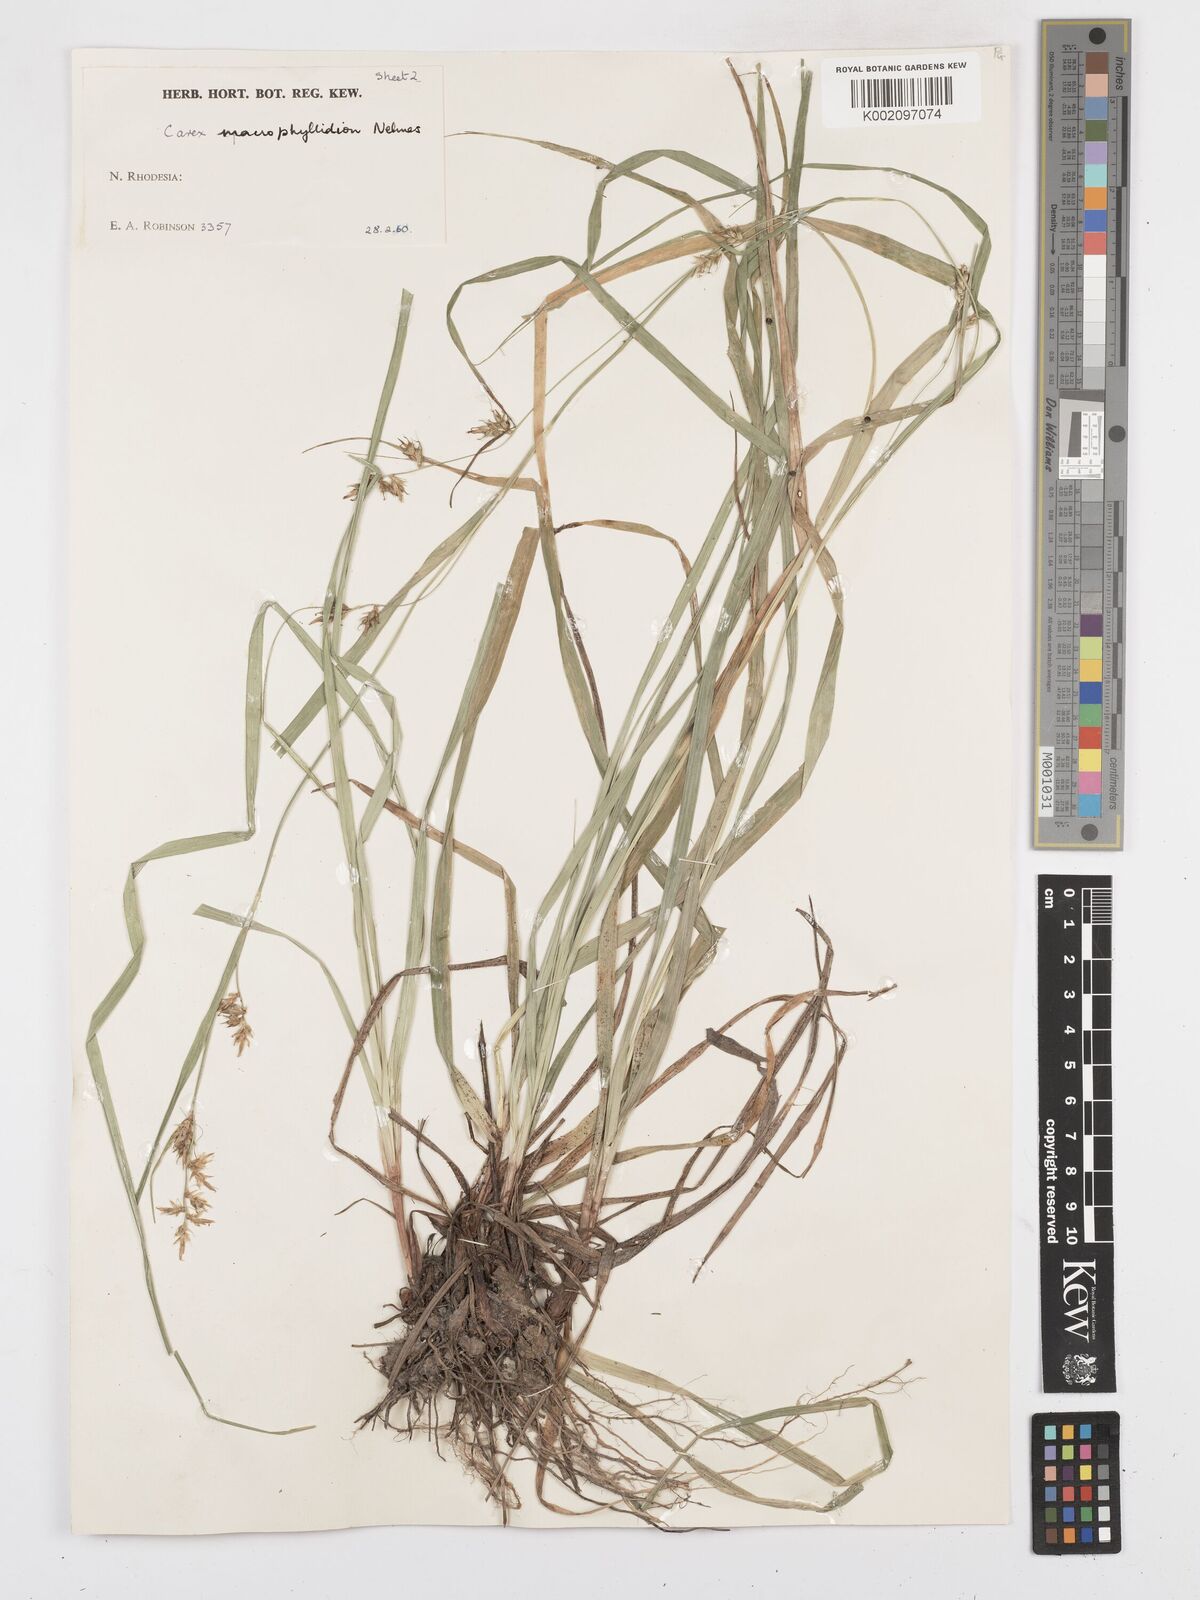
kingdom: Plantae
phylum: Tracheophyta
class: Liliopsida
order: Poales
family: Cyperaceae
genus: Carex
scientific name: Carex macrophyllidion
